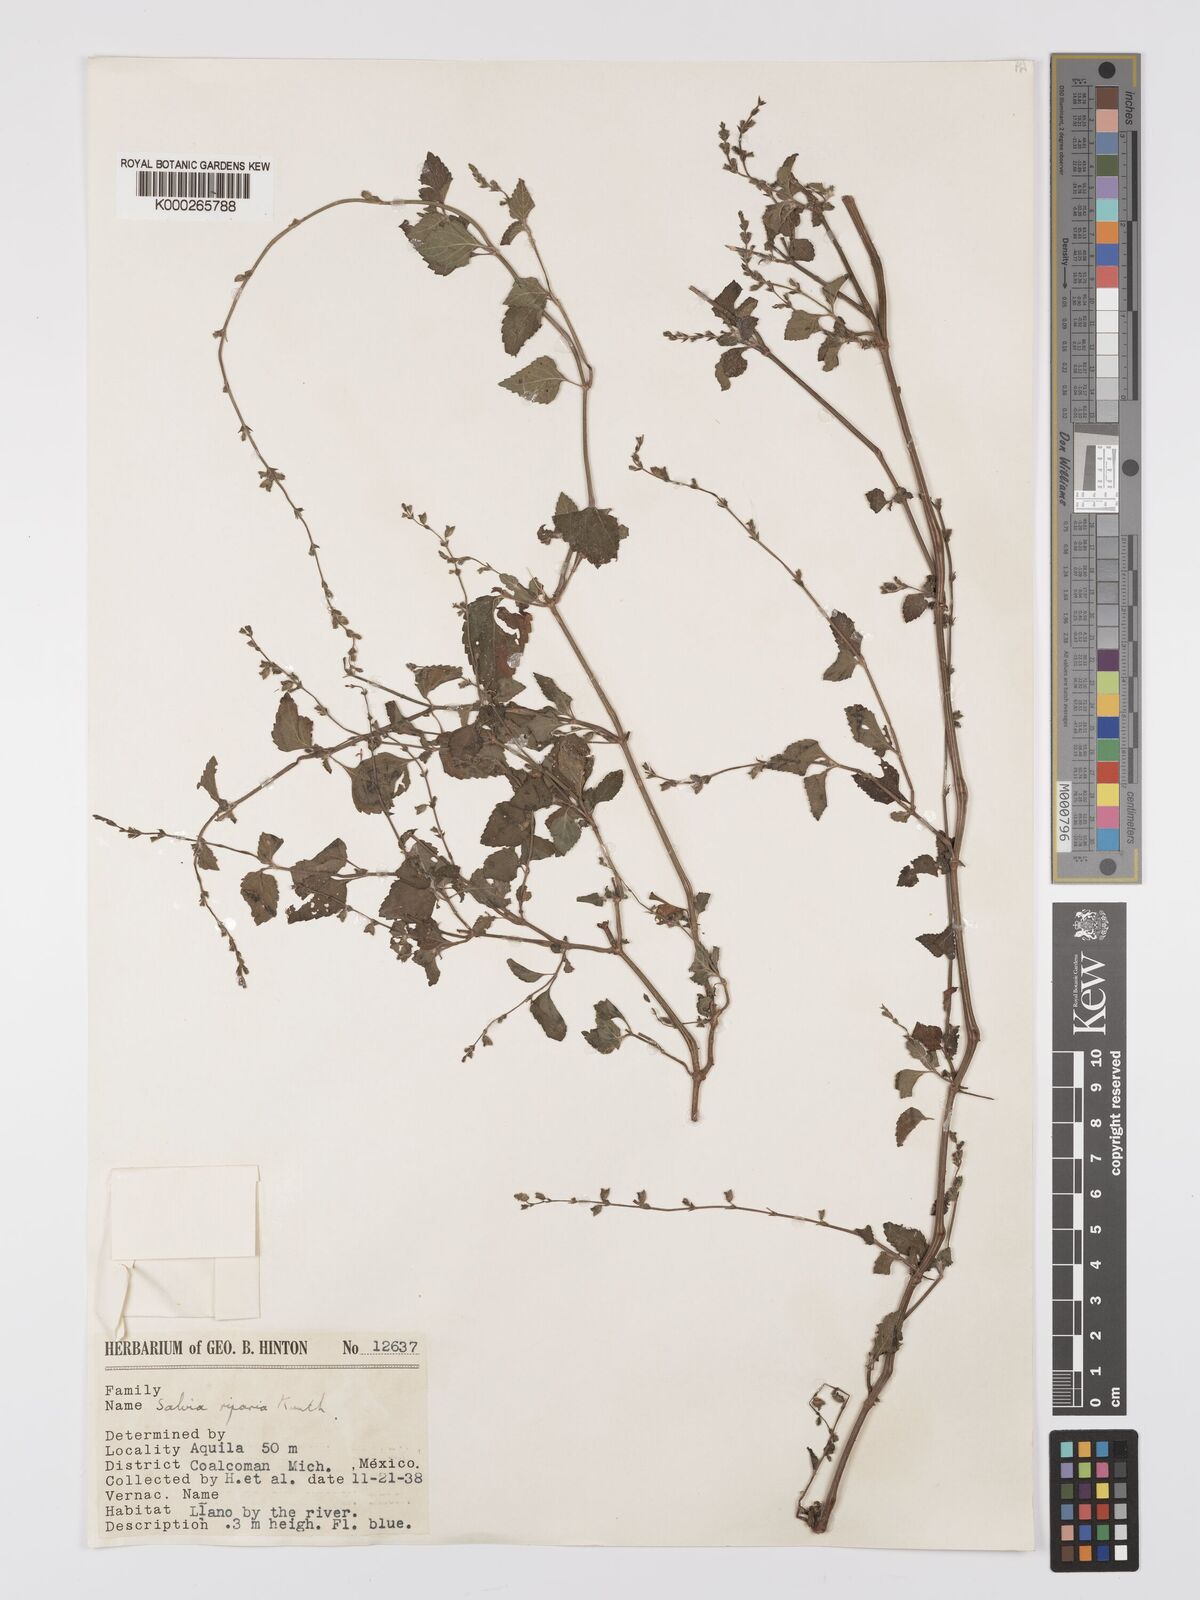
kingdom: Plantae
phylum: Tracheophyta
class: Magnoliopsida
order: Lamiales
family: Lamiaceae
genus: Salvia
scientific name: Salvia misella
